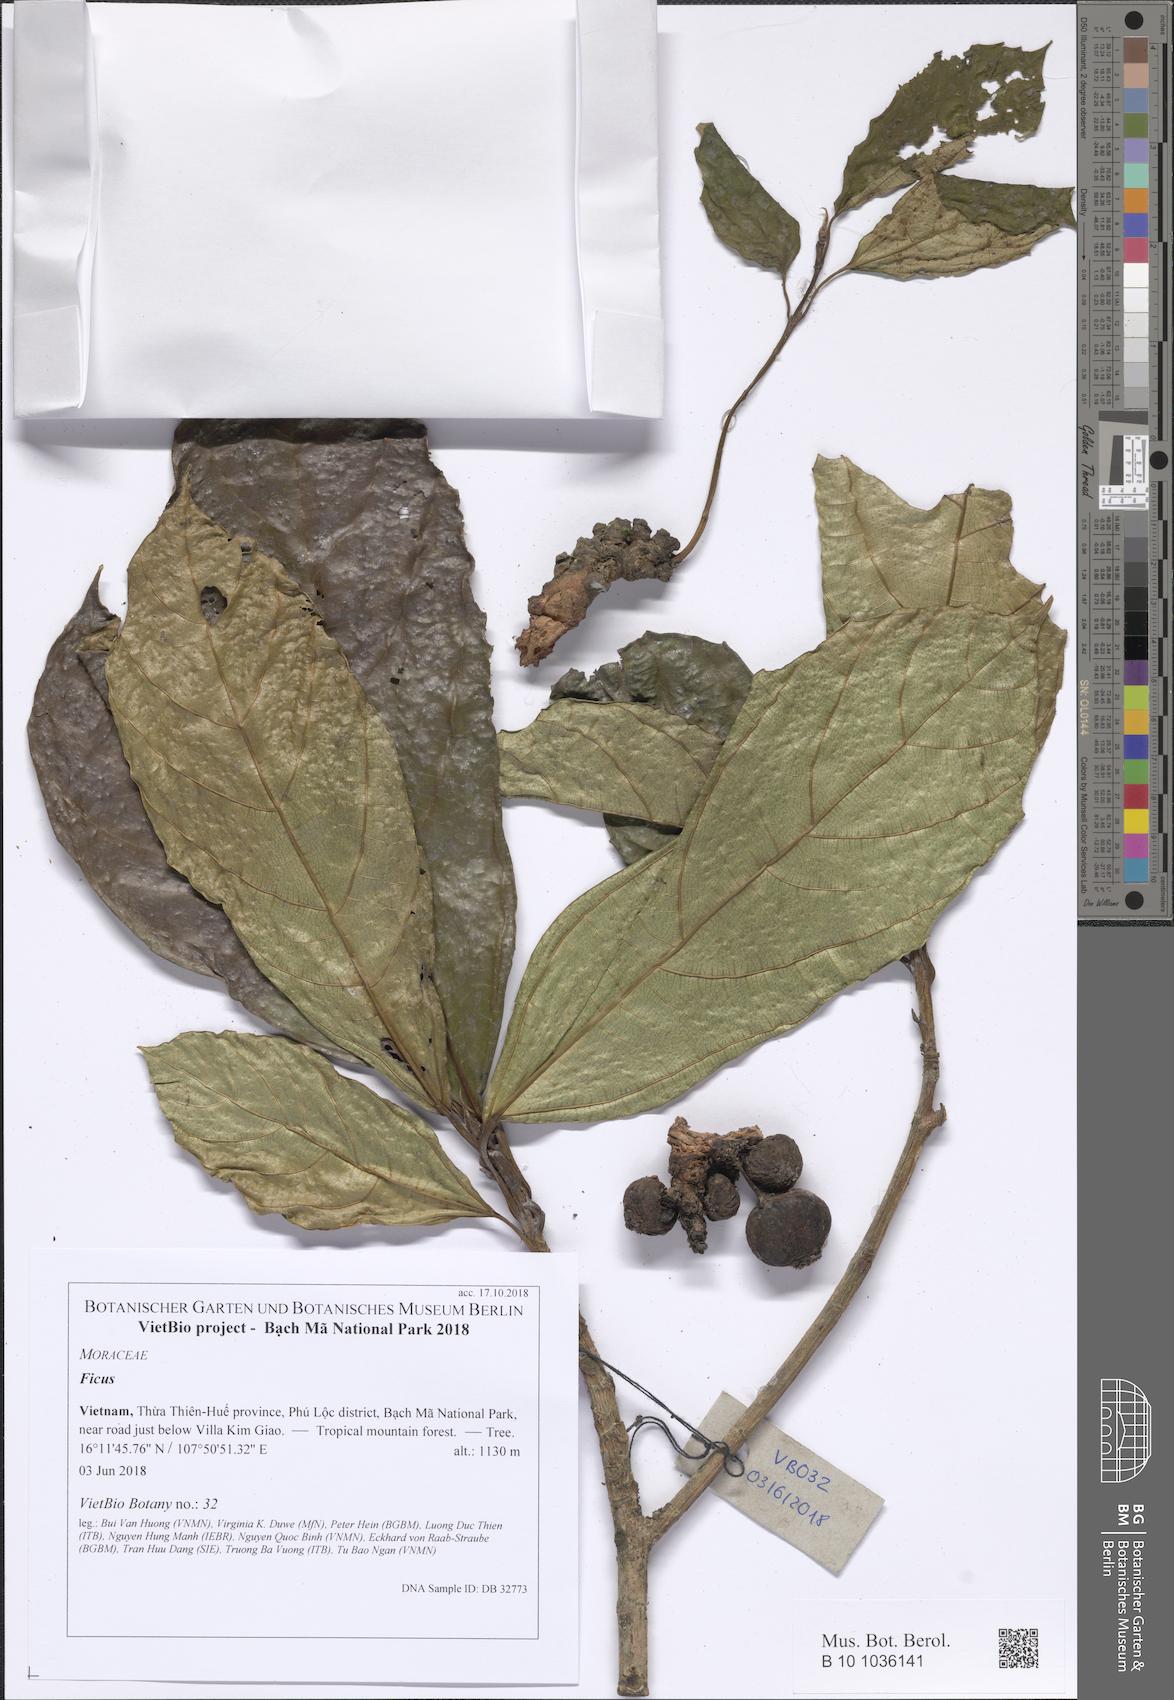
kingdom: Plantae
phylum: Tracheophyta
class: Magnoliopsida
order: Rosales
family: Moraceae
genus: Ficus
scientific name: Ficus
